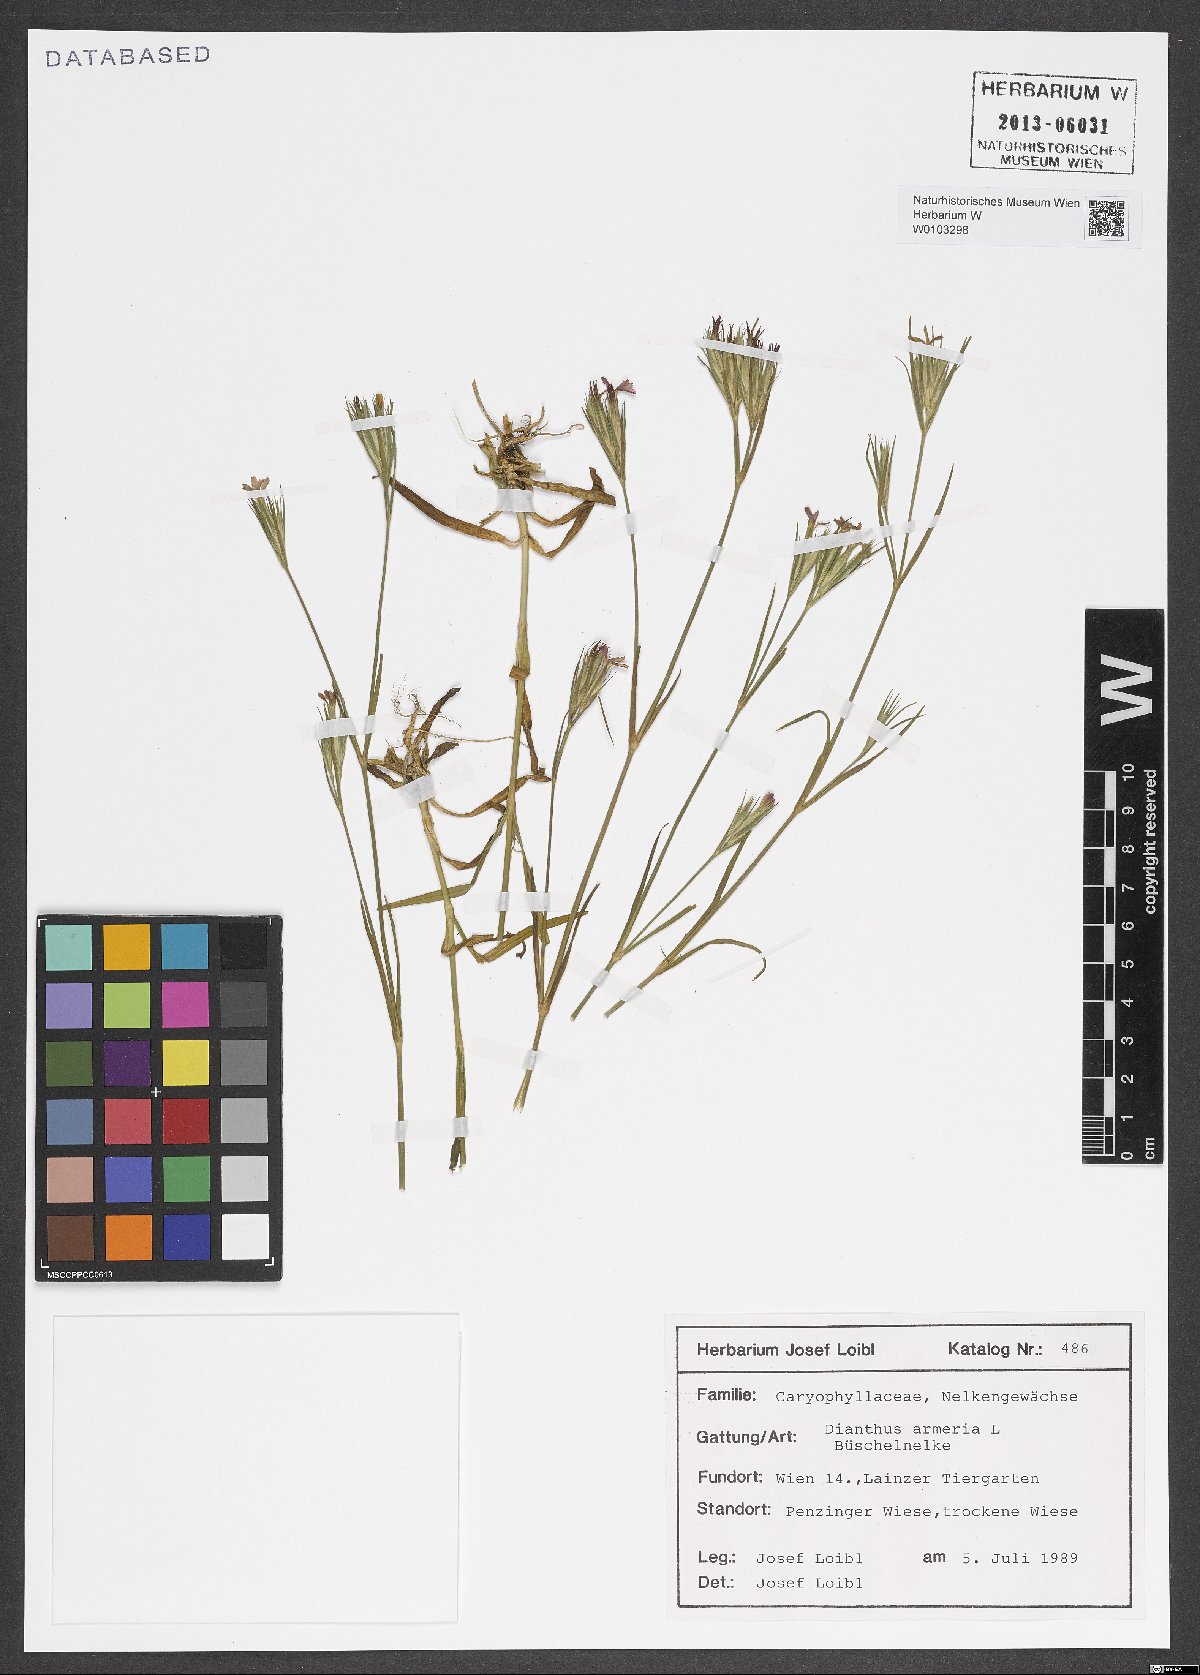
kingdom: Plantae
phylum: Tracheophyta
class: Magnoliopsida
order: Caryophyllales
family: Caryophyllaceae
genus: Dianthus
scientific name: Dianthus armeria
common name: Deptford pink
